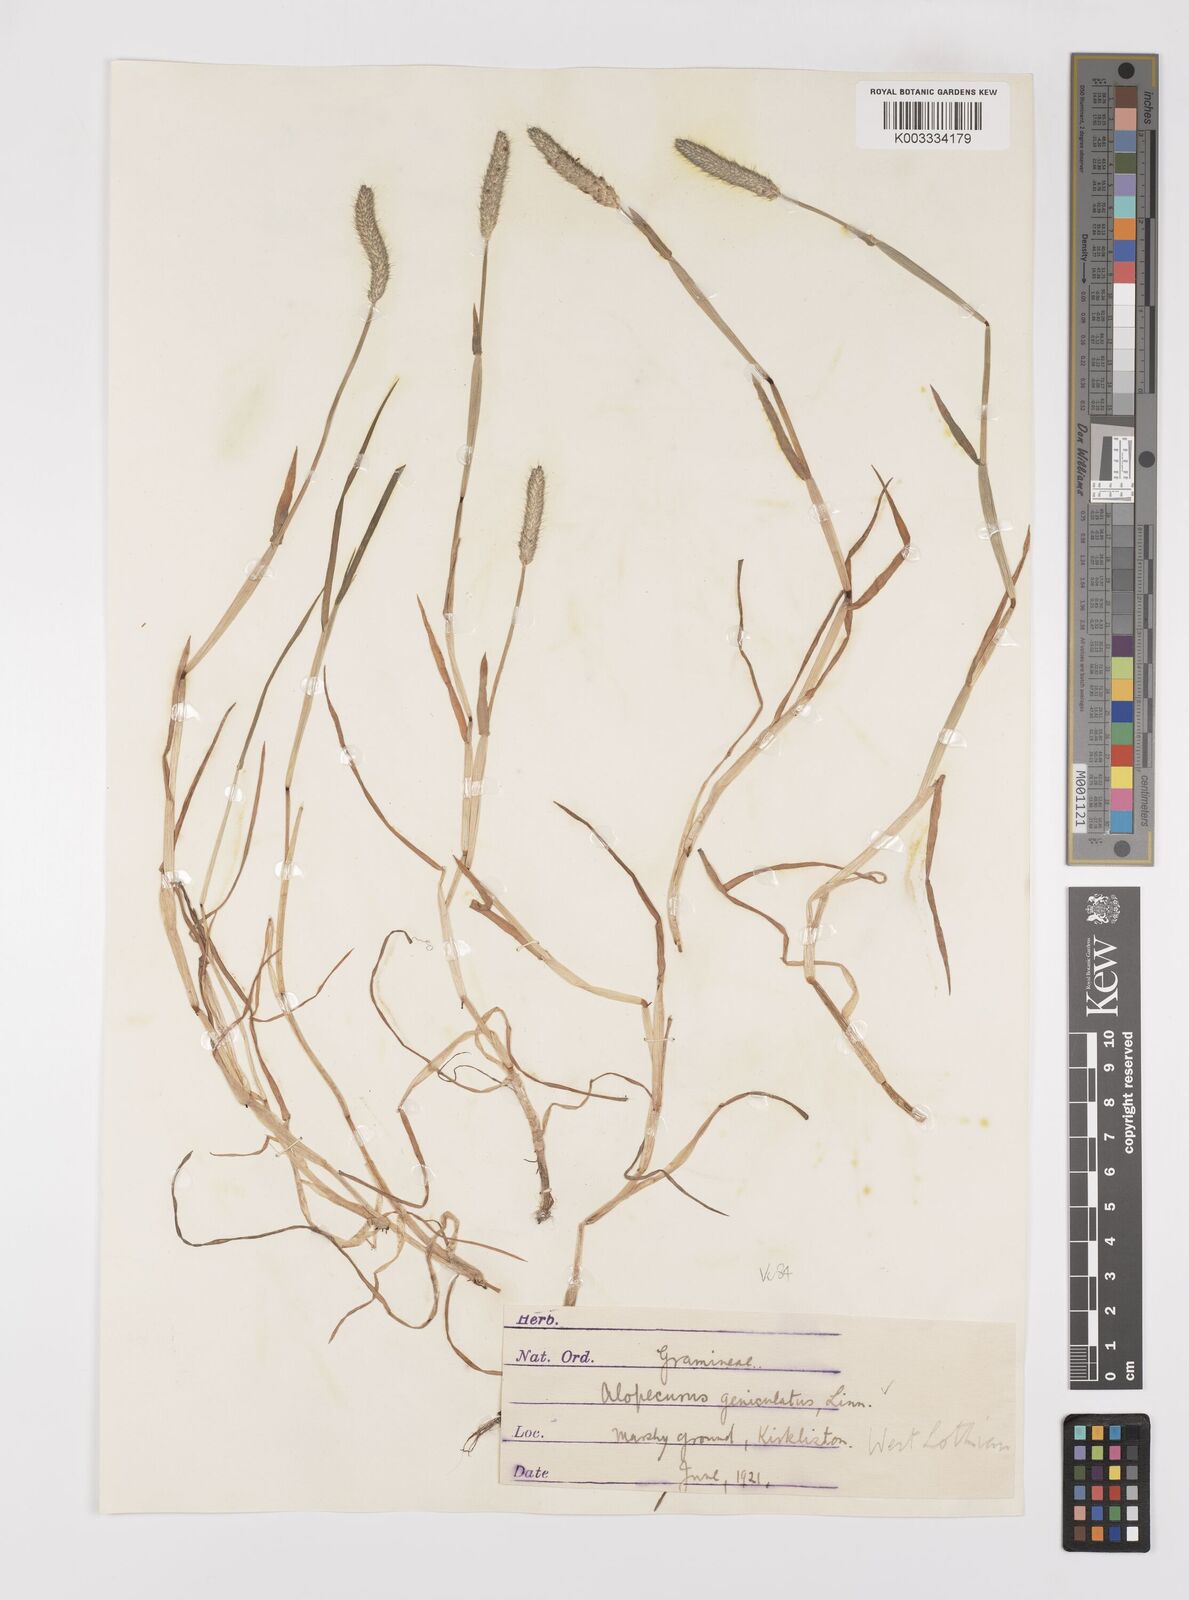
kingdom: Plantae
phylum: Tracheophyta
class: Liliopsida
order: Poales
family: Poaceae
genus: Alopecurus
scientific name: Alopecurus geniculatus
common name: Water foxtail
